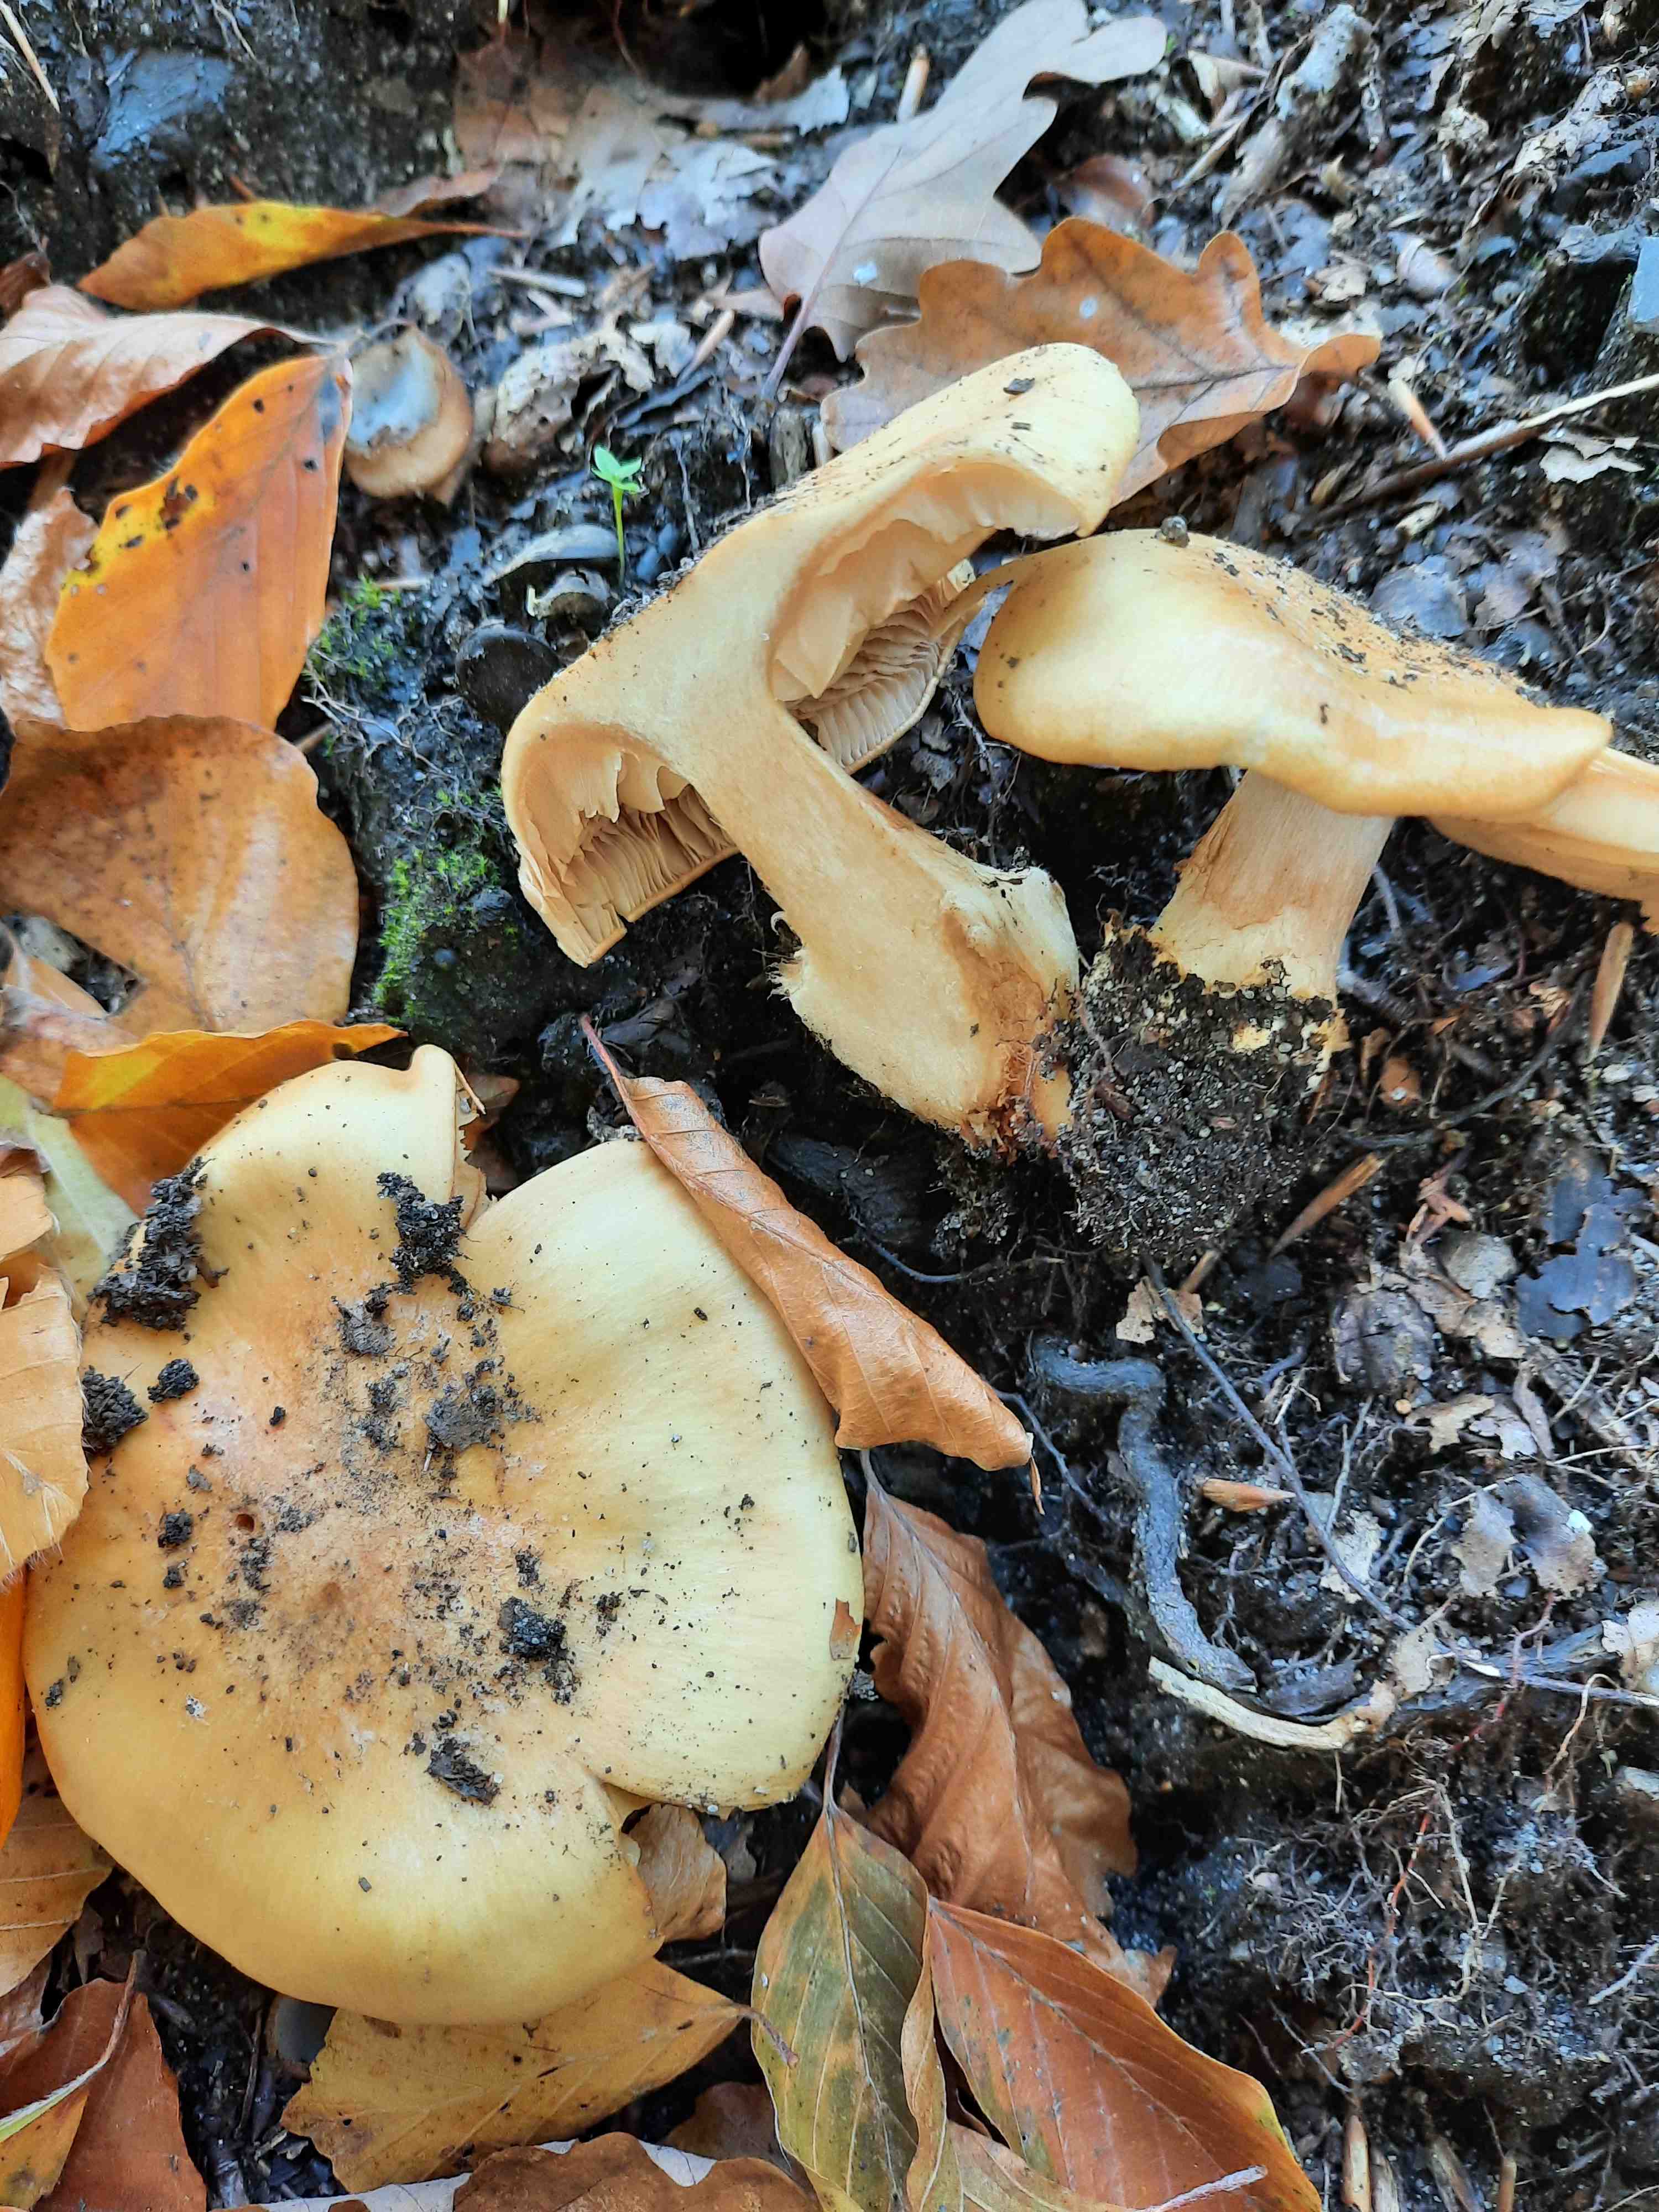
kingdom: Fungi
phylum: Basidiomycota
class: Agaricomycetes
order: Agaricales
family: Cortinariaceae
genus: Phlegmacium
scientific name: Phlegmacium xantho-ochraceum
